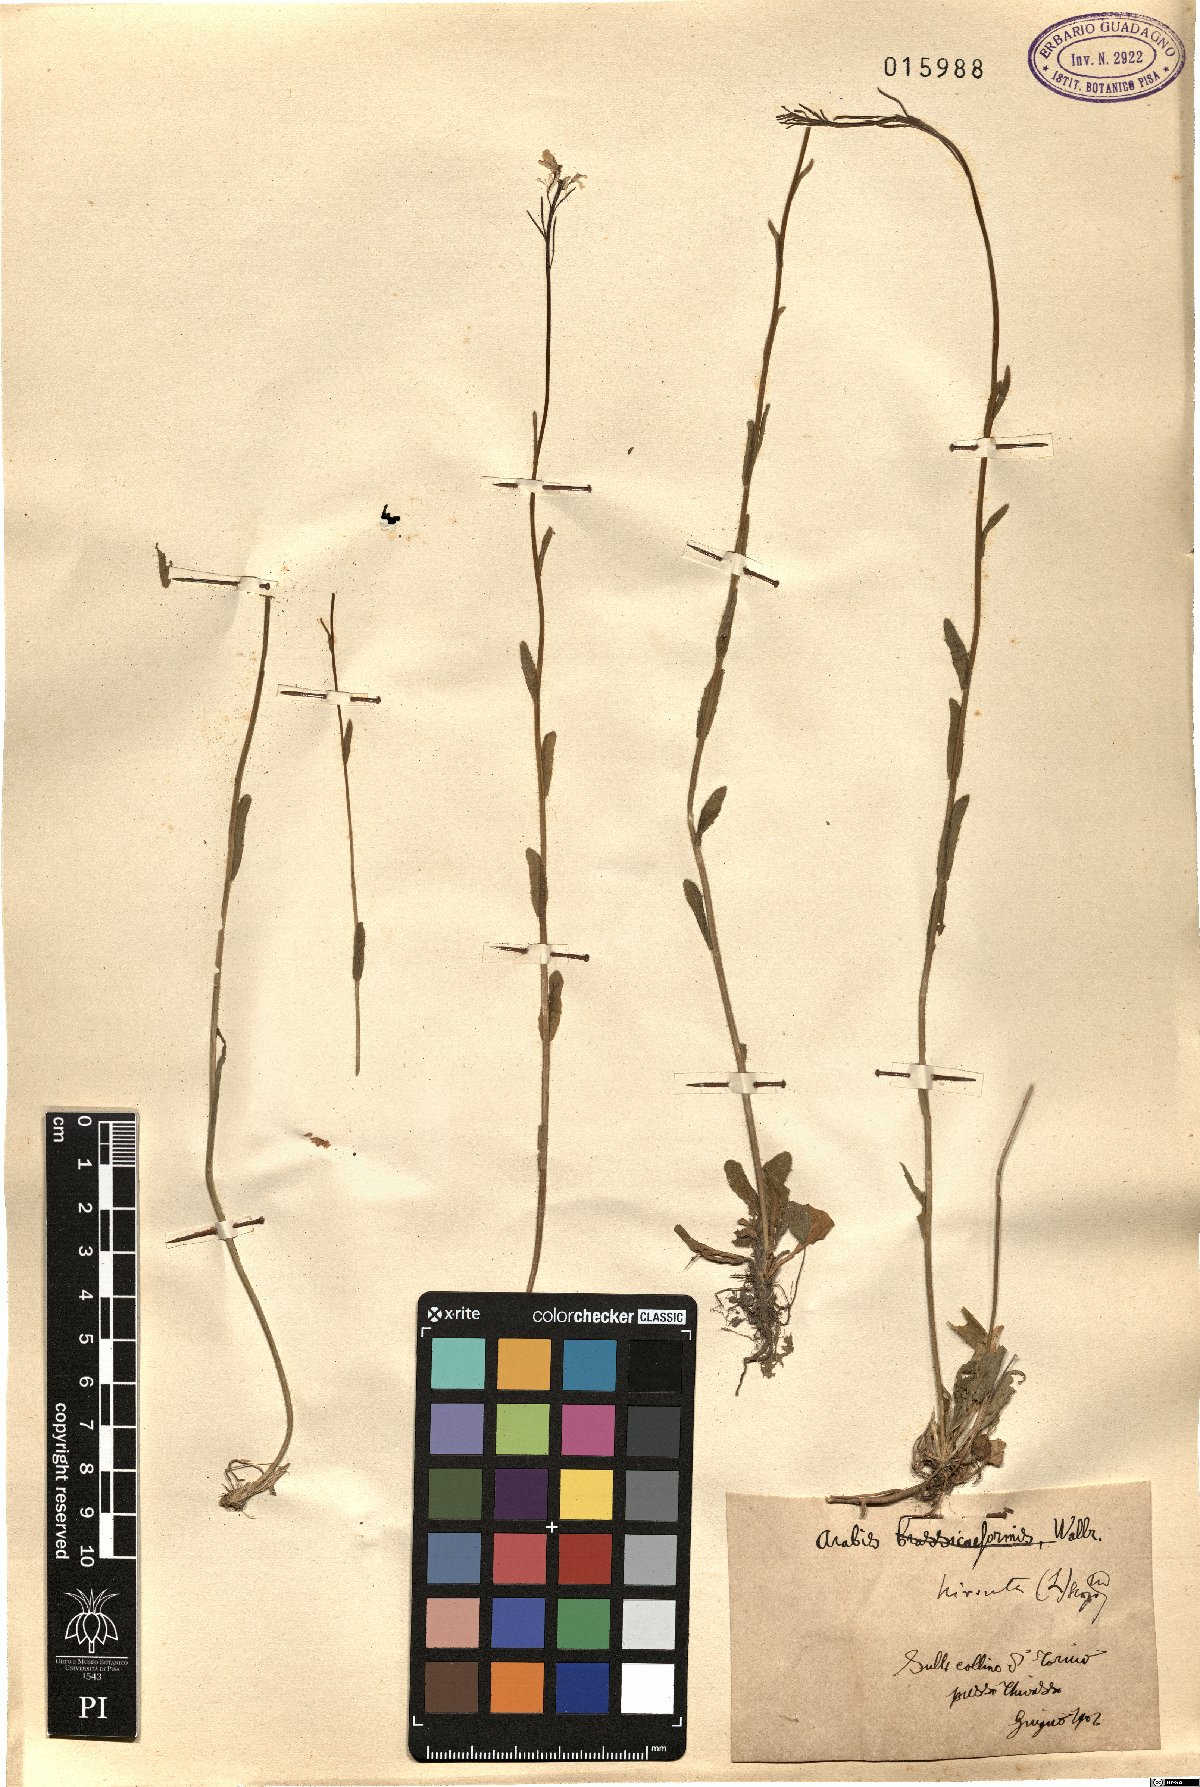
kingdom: Plantae
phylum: Tracheophyta
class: Magnoliopsida
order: Brassicales
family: Brassicaceae
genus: Arabis
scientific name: Arabis hirsuta
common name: Hairy rock-cress
